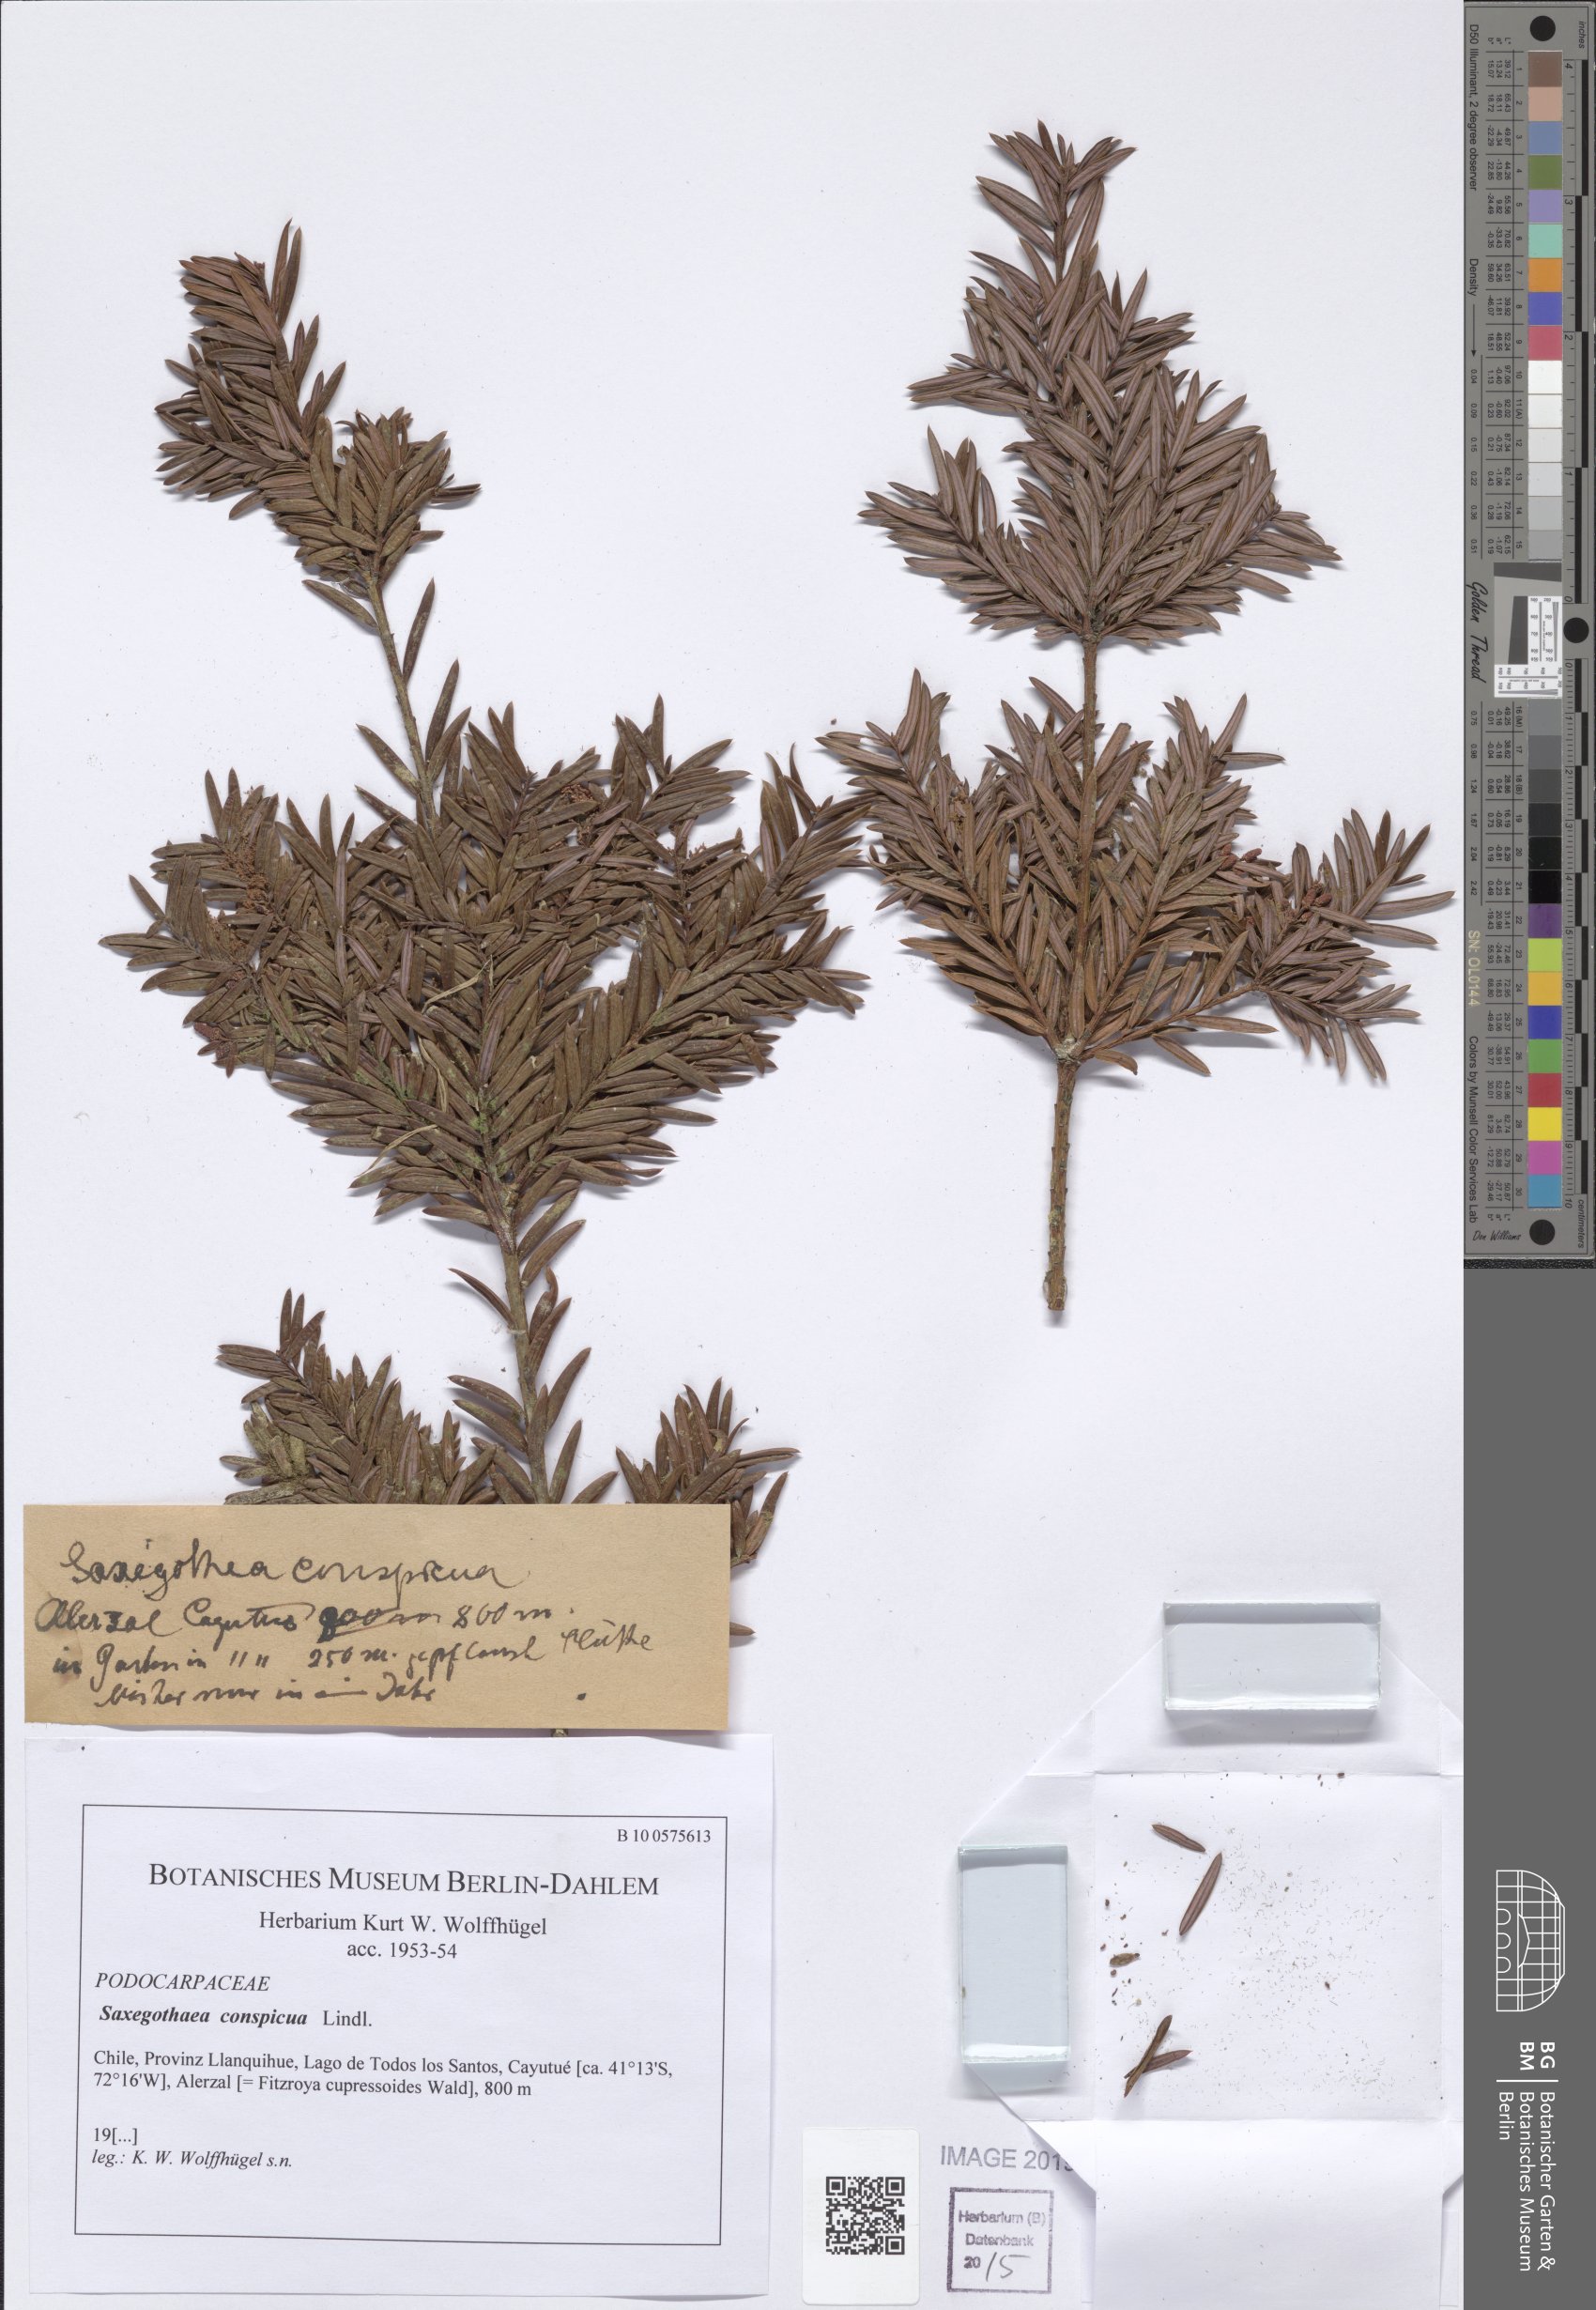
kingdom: Plantae
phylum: Tracheophyta
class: Pinopsida
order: Pinales
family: Podocarpaceae
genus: Saxegothaea
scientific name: Saxegothaea conspicua
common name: Prince albert's yew
